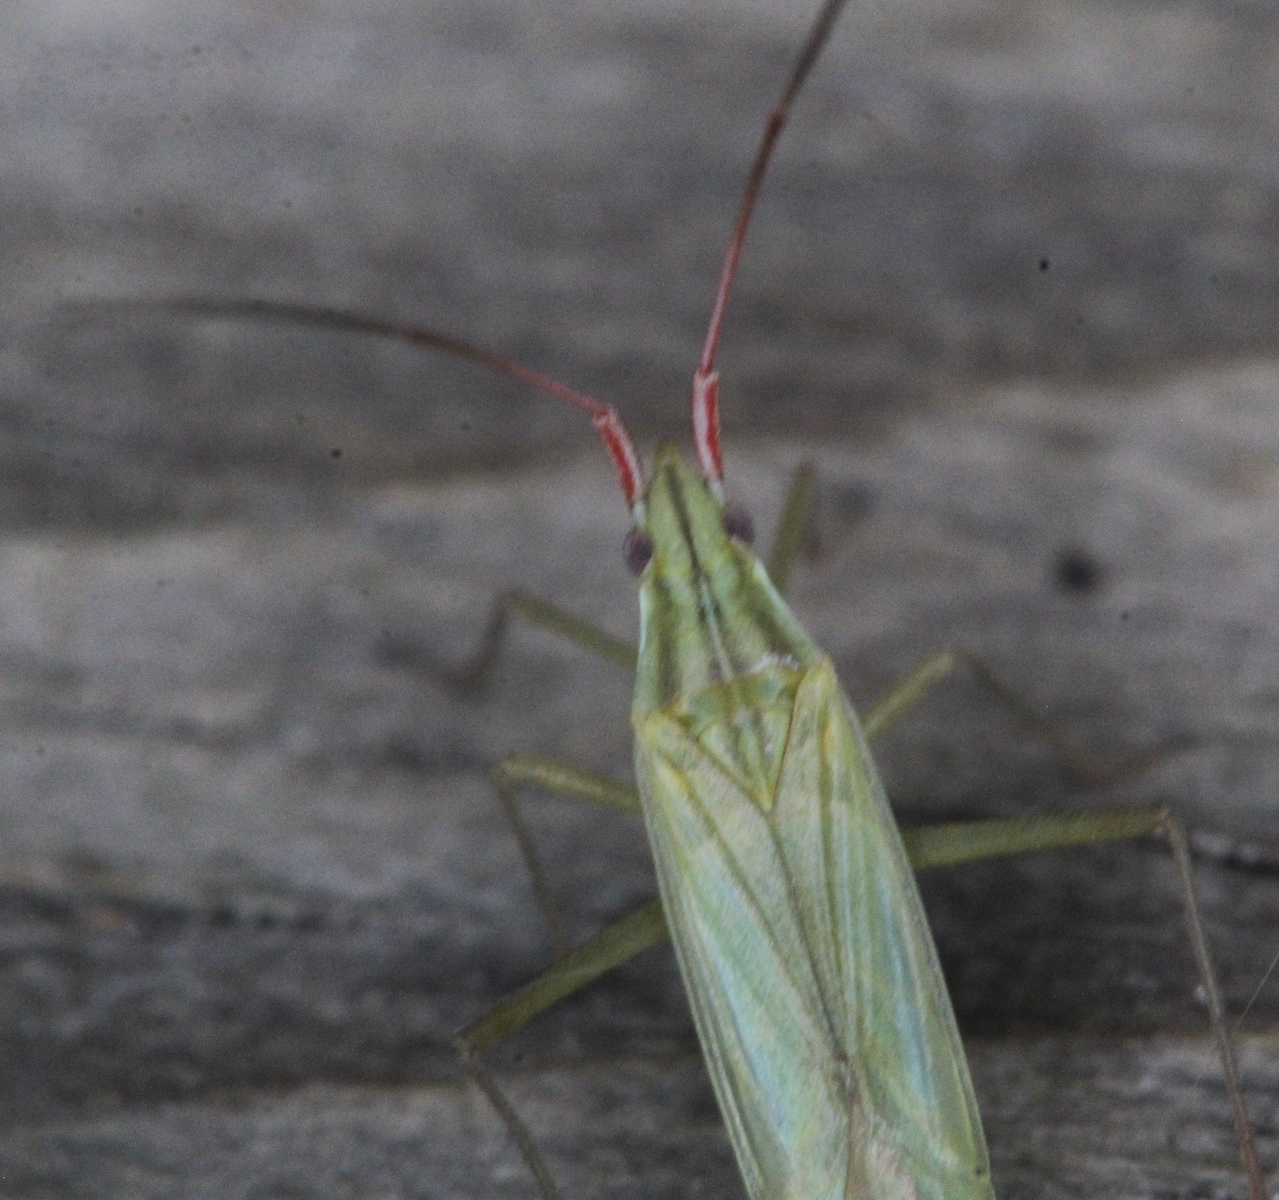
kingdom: Animalia
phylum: Arthropoda
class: Insecta
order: Hemiptera
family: Miridae
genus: Trigonotylus
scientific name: Trigonotylus caelestialium
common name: Rice leaf bug
